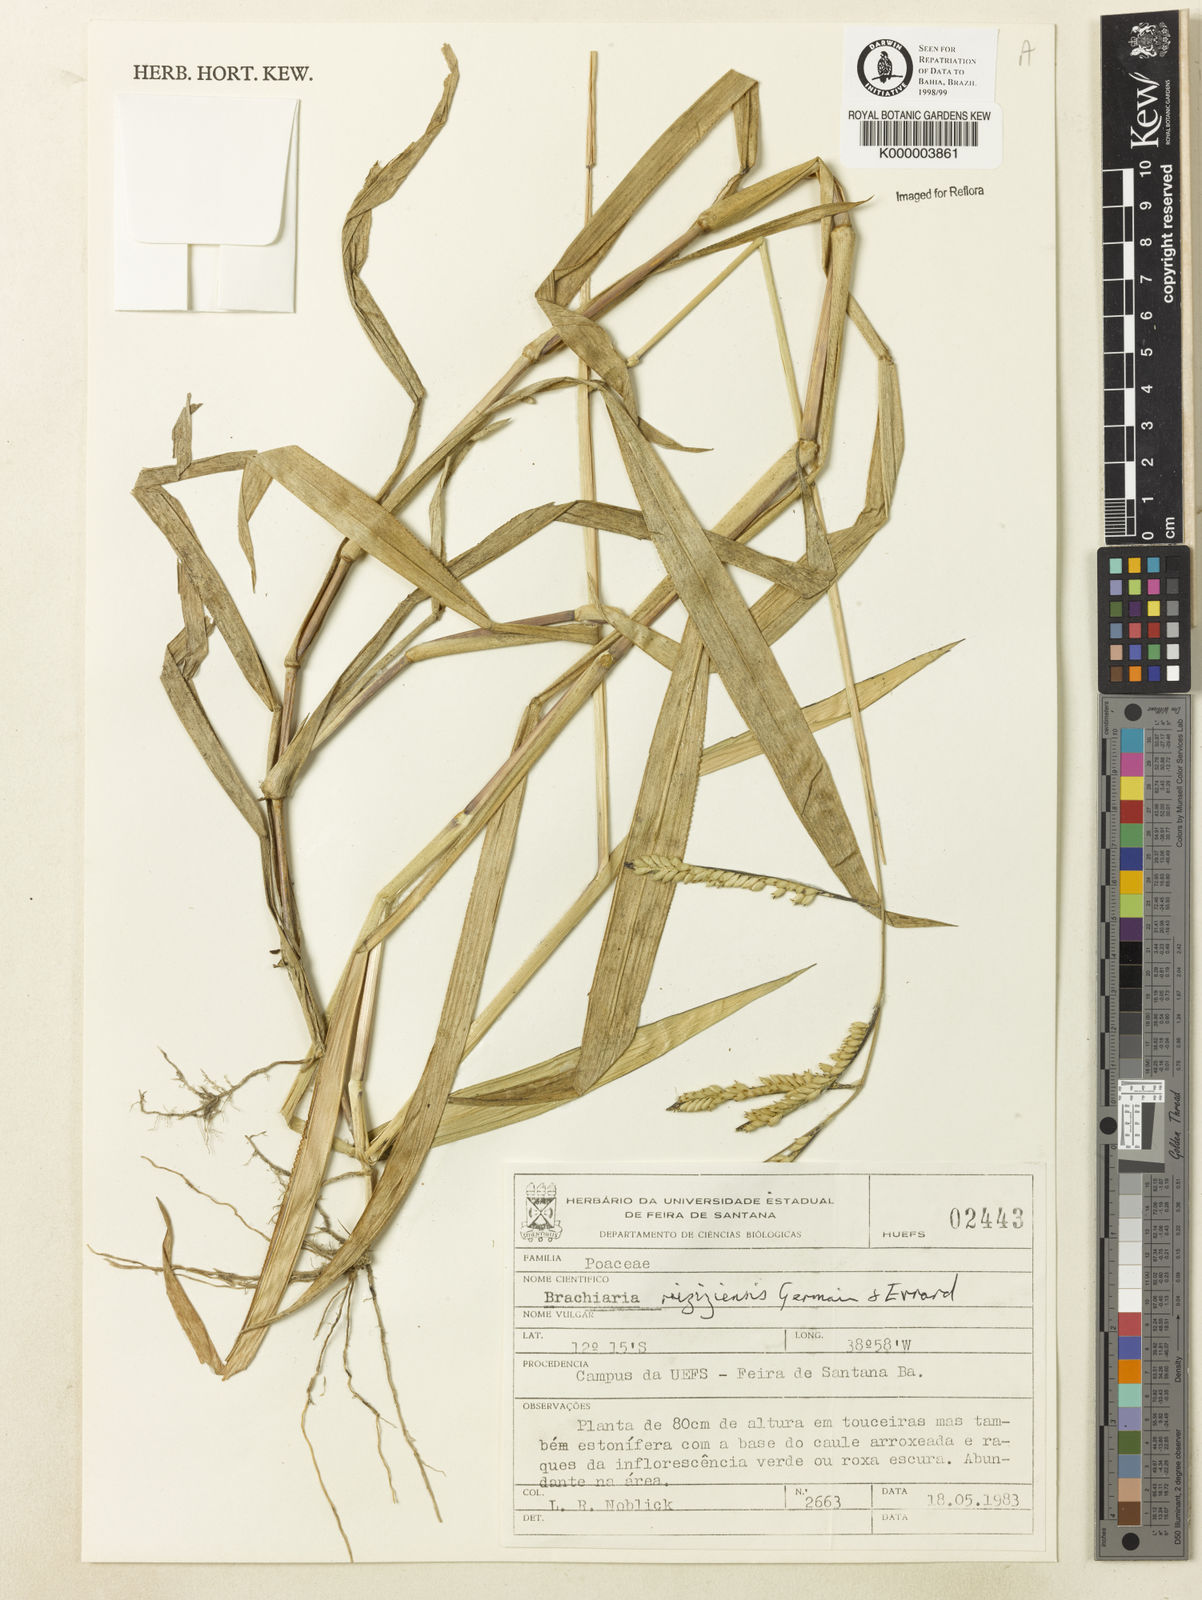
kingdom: Plantae
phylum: Tracheophyta
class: Liliopsida
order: Poales
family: Poaceae
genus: Urochloa
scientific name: Urochloa eminii
